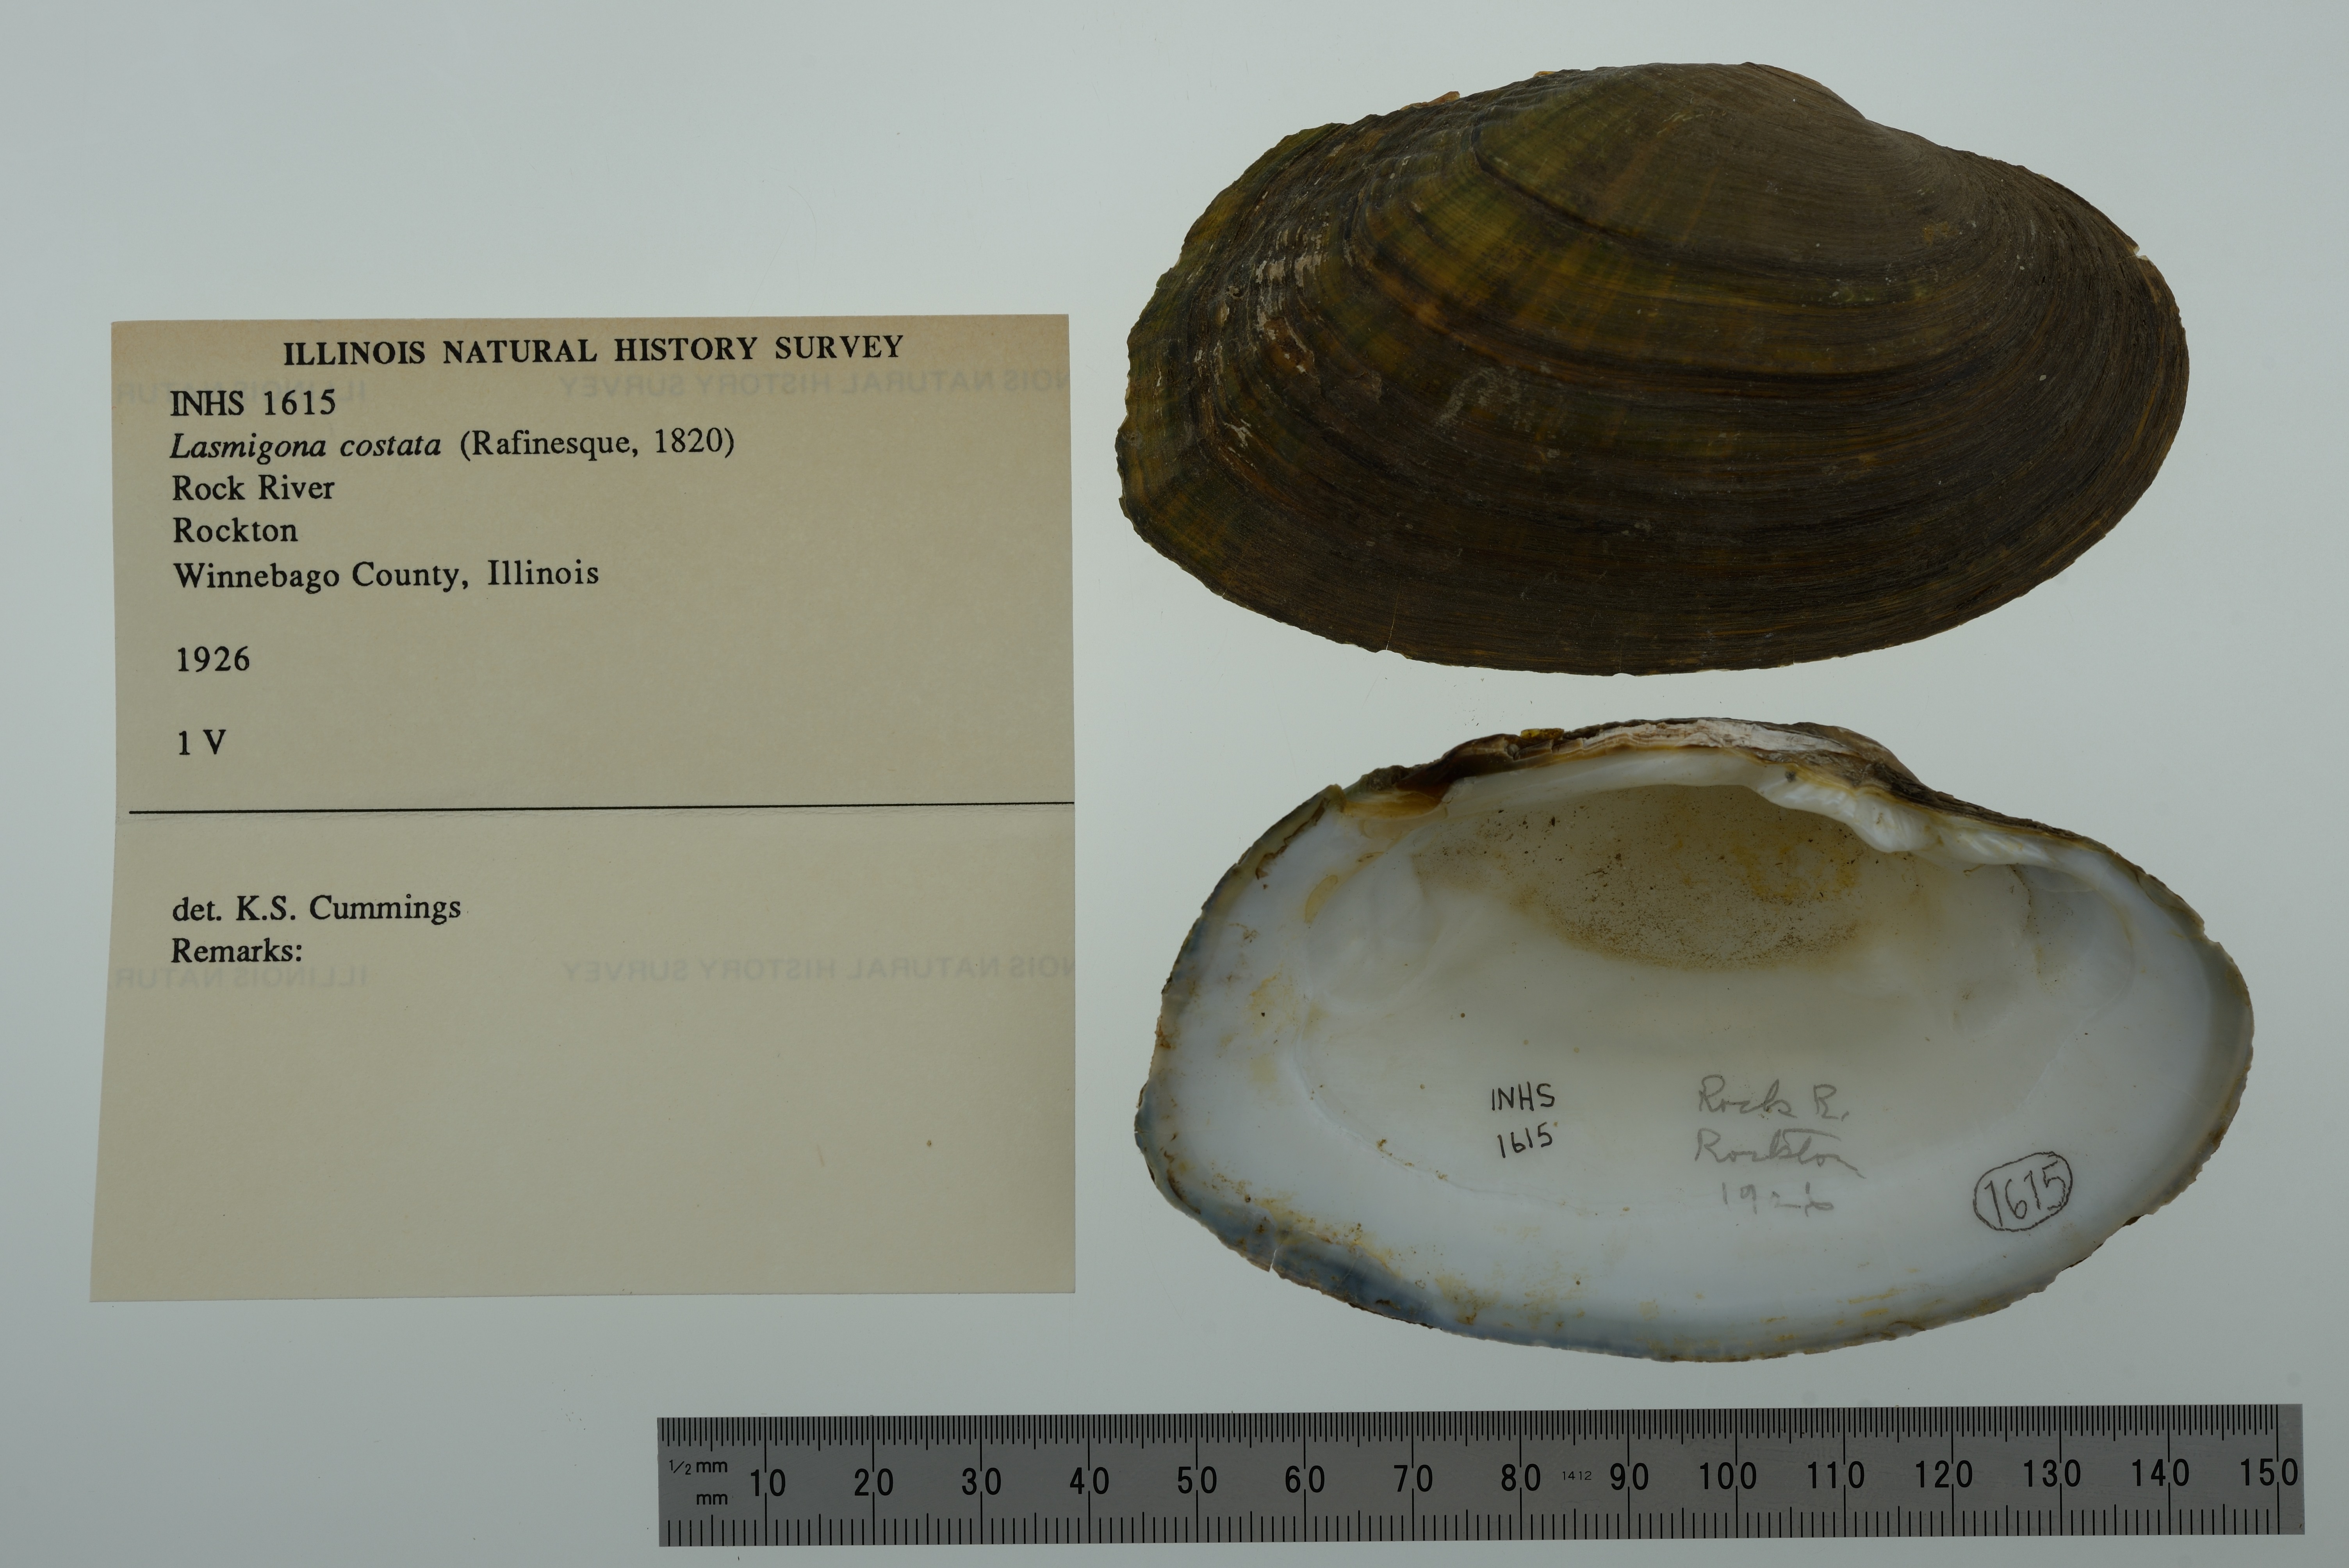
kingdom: Animalia
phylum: Mollusca
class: Bivalvia
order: Unionida
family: Unionidae
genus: Lasmigona
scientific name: Lasmigona costata
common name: Flutedshell
